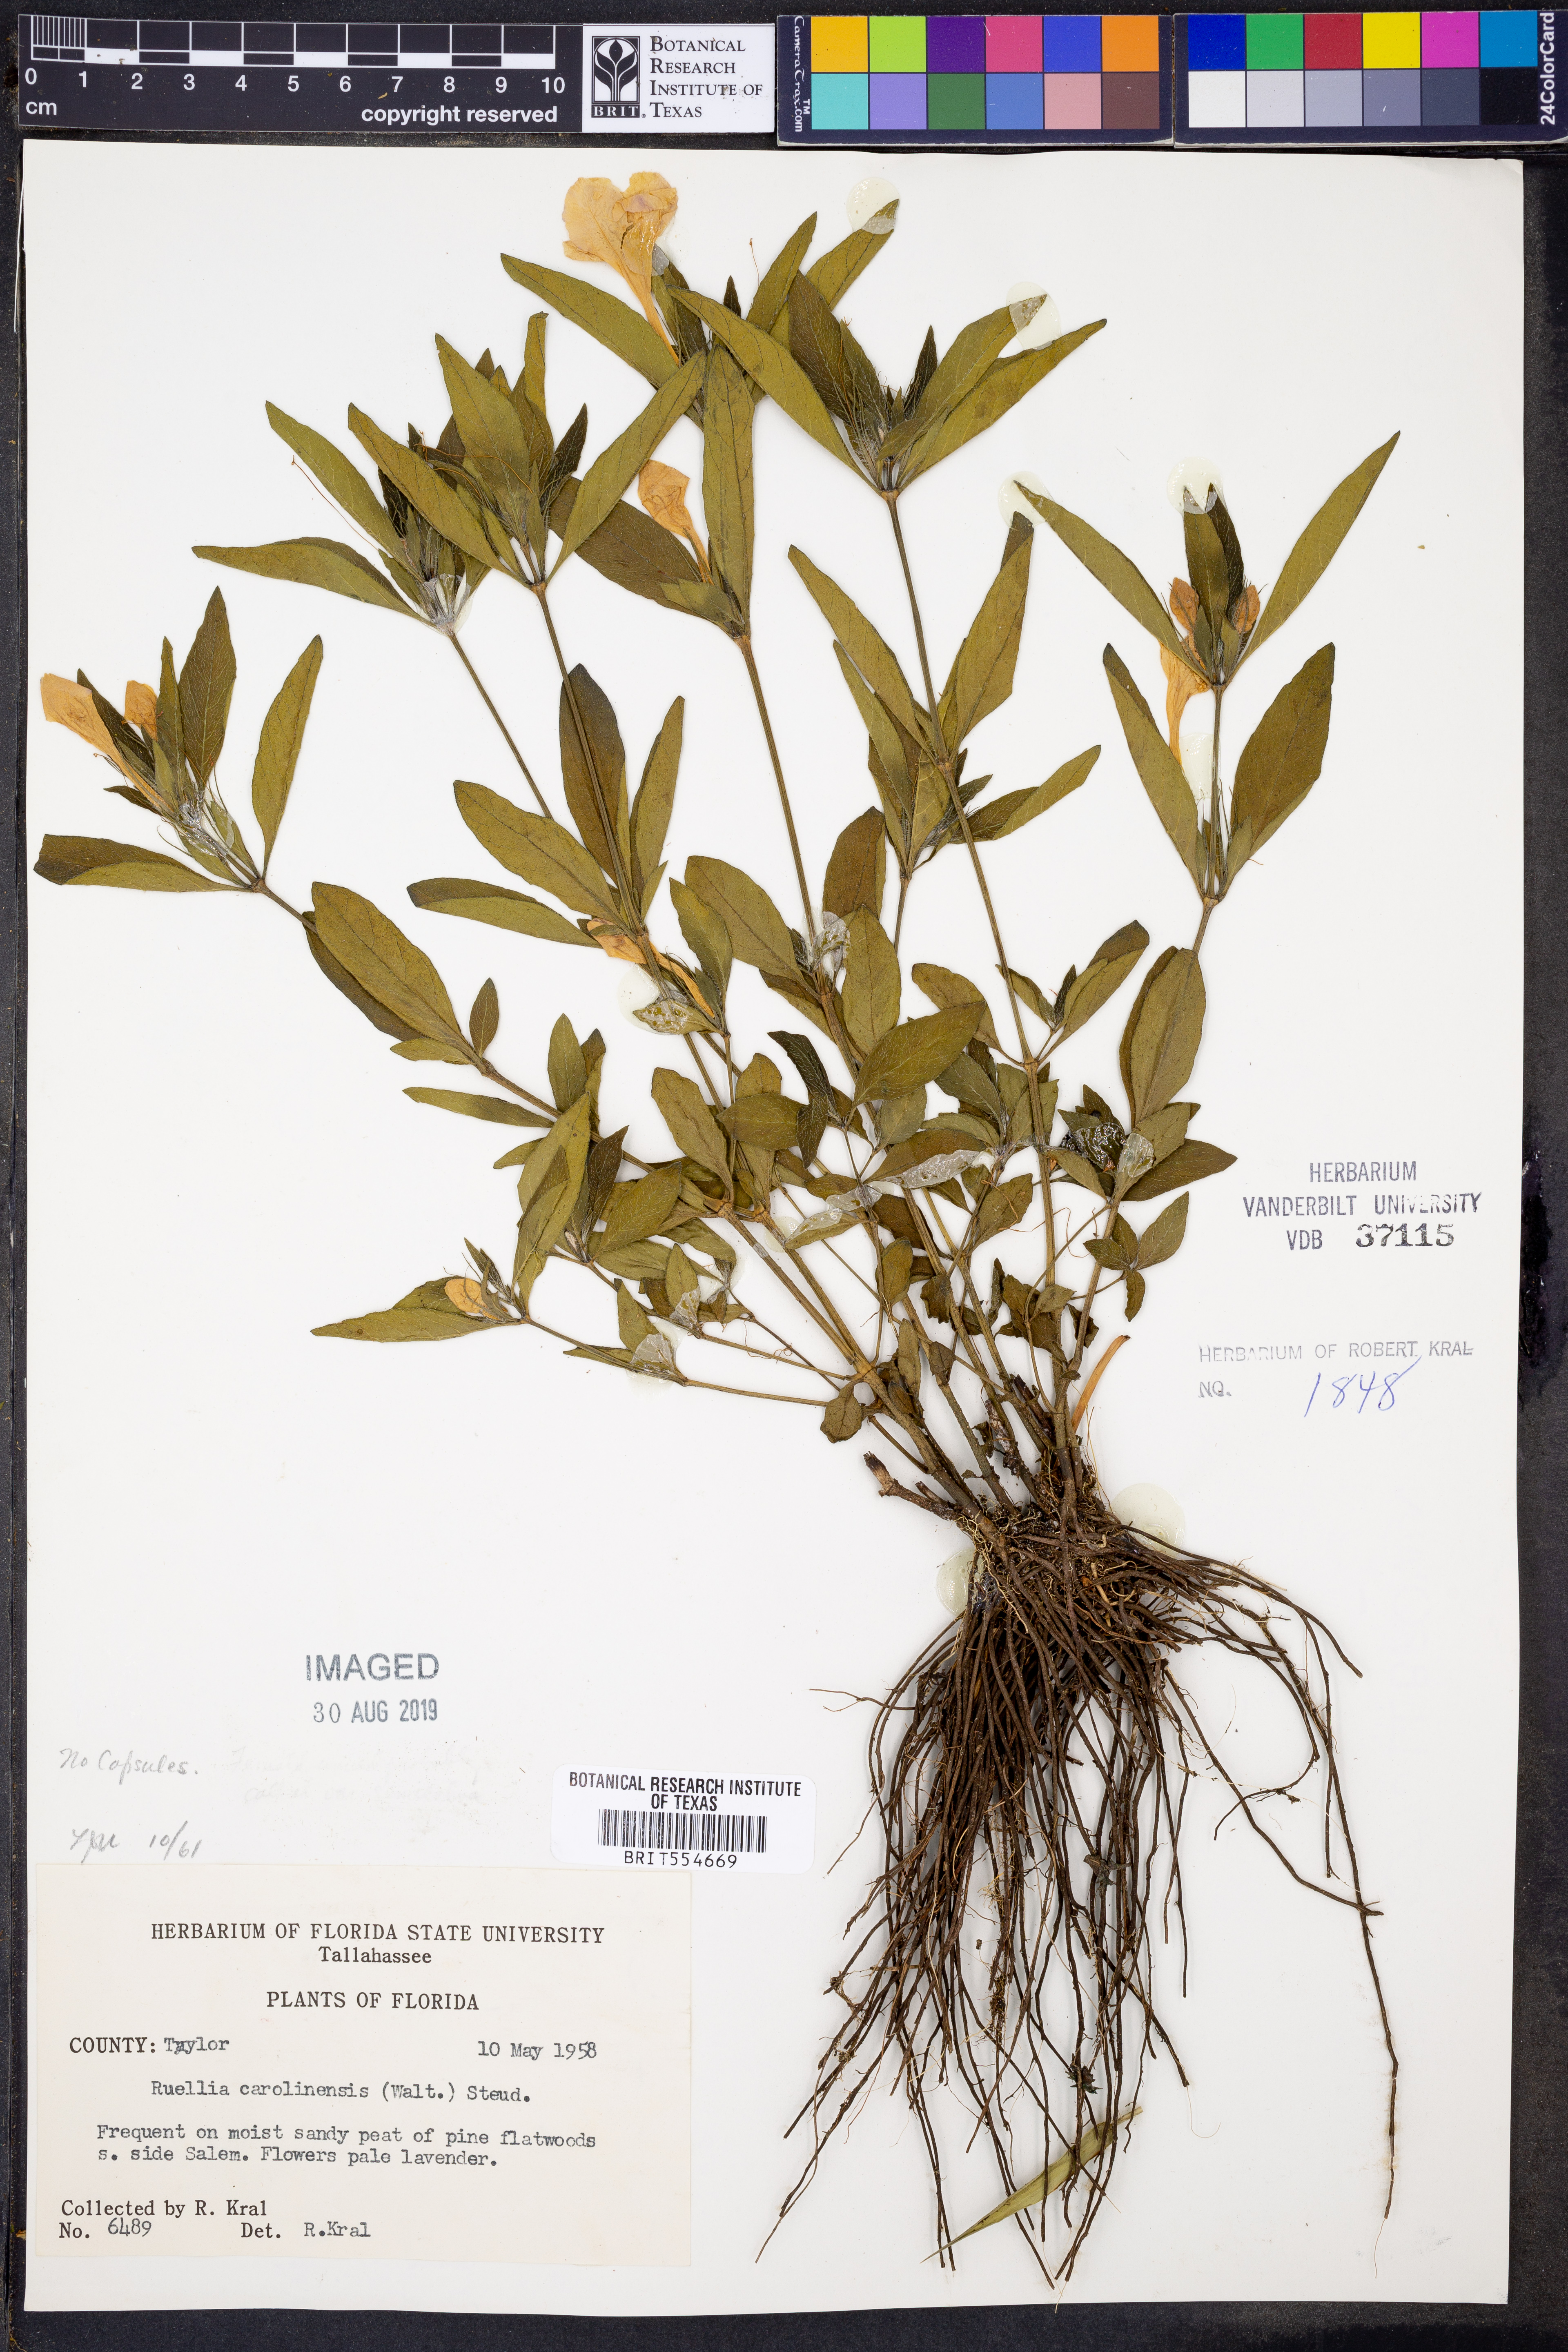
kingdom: Plantae
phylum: Tracheophyta
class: Magnoliopsida
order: Lamiales
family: Acanthaceae
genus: Ruellia
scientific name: Ruellia caroliniensis
